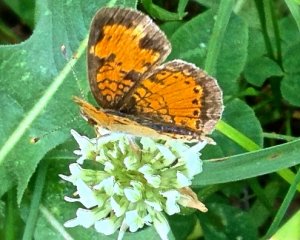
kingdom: Animalia
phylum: Arthropoda
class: Insecta
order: Lepidoptera
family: Nymphalidae
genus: Phyciodes
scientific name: Phyciodes tharos
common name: Northern Crescent
